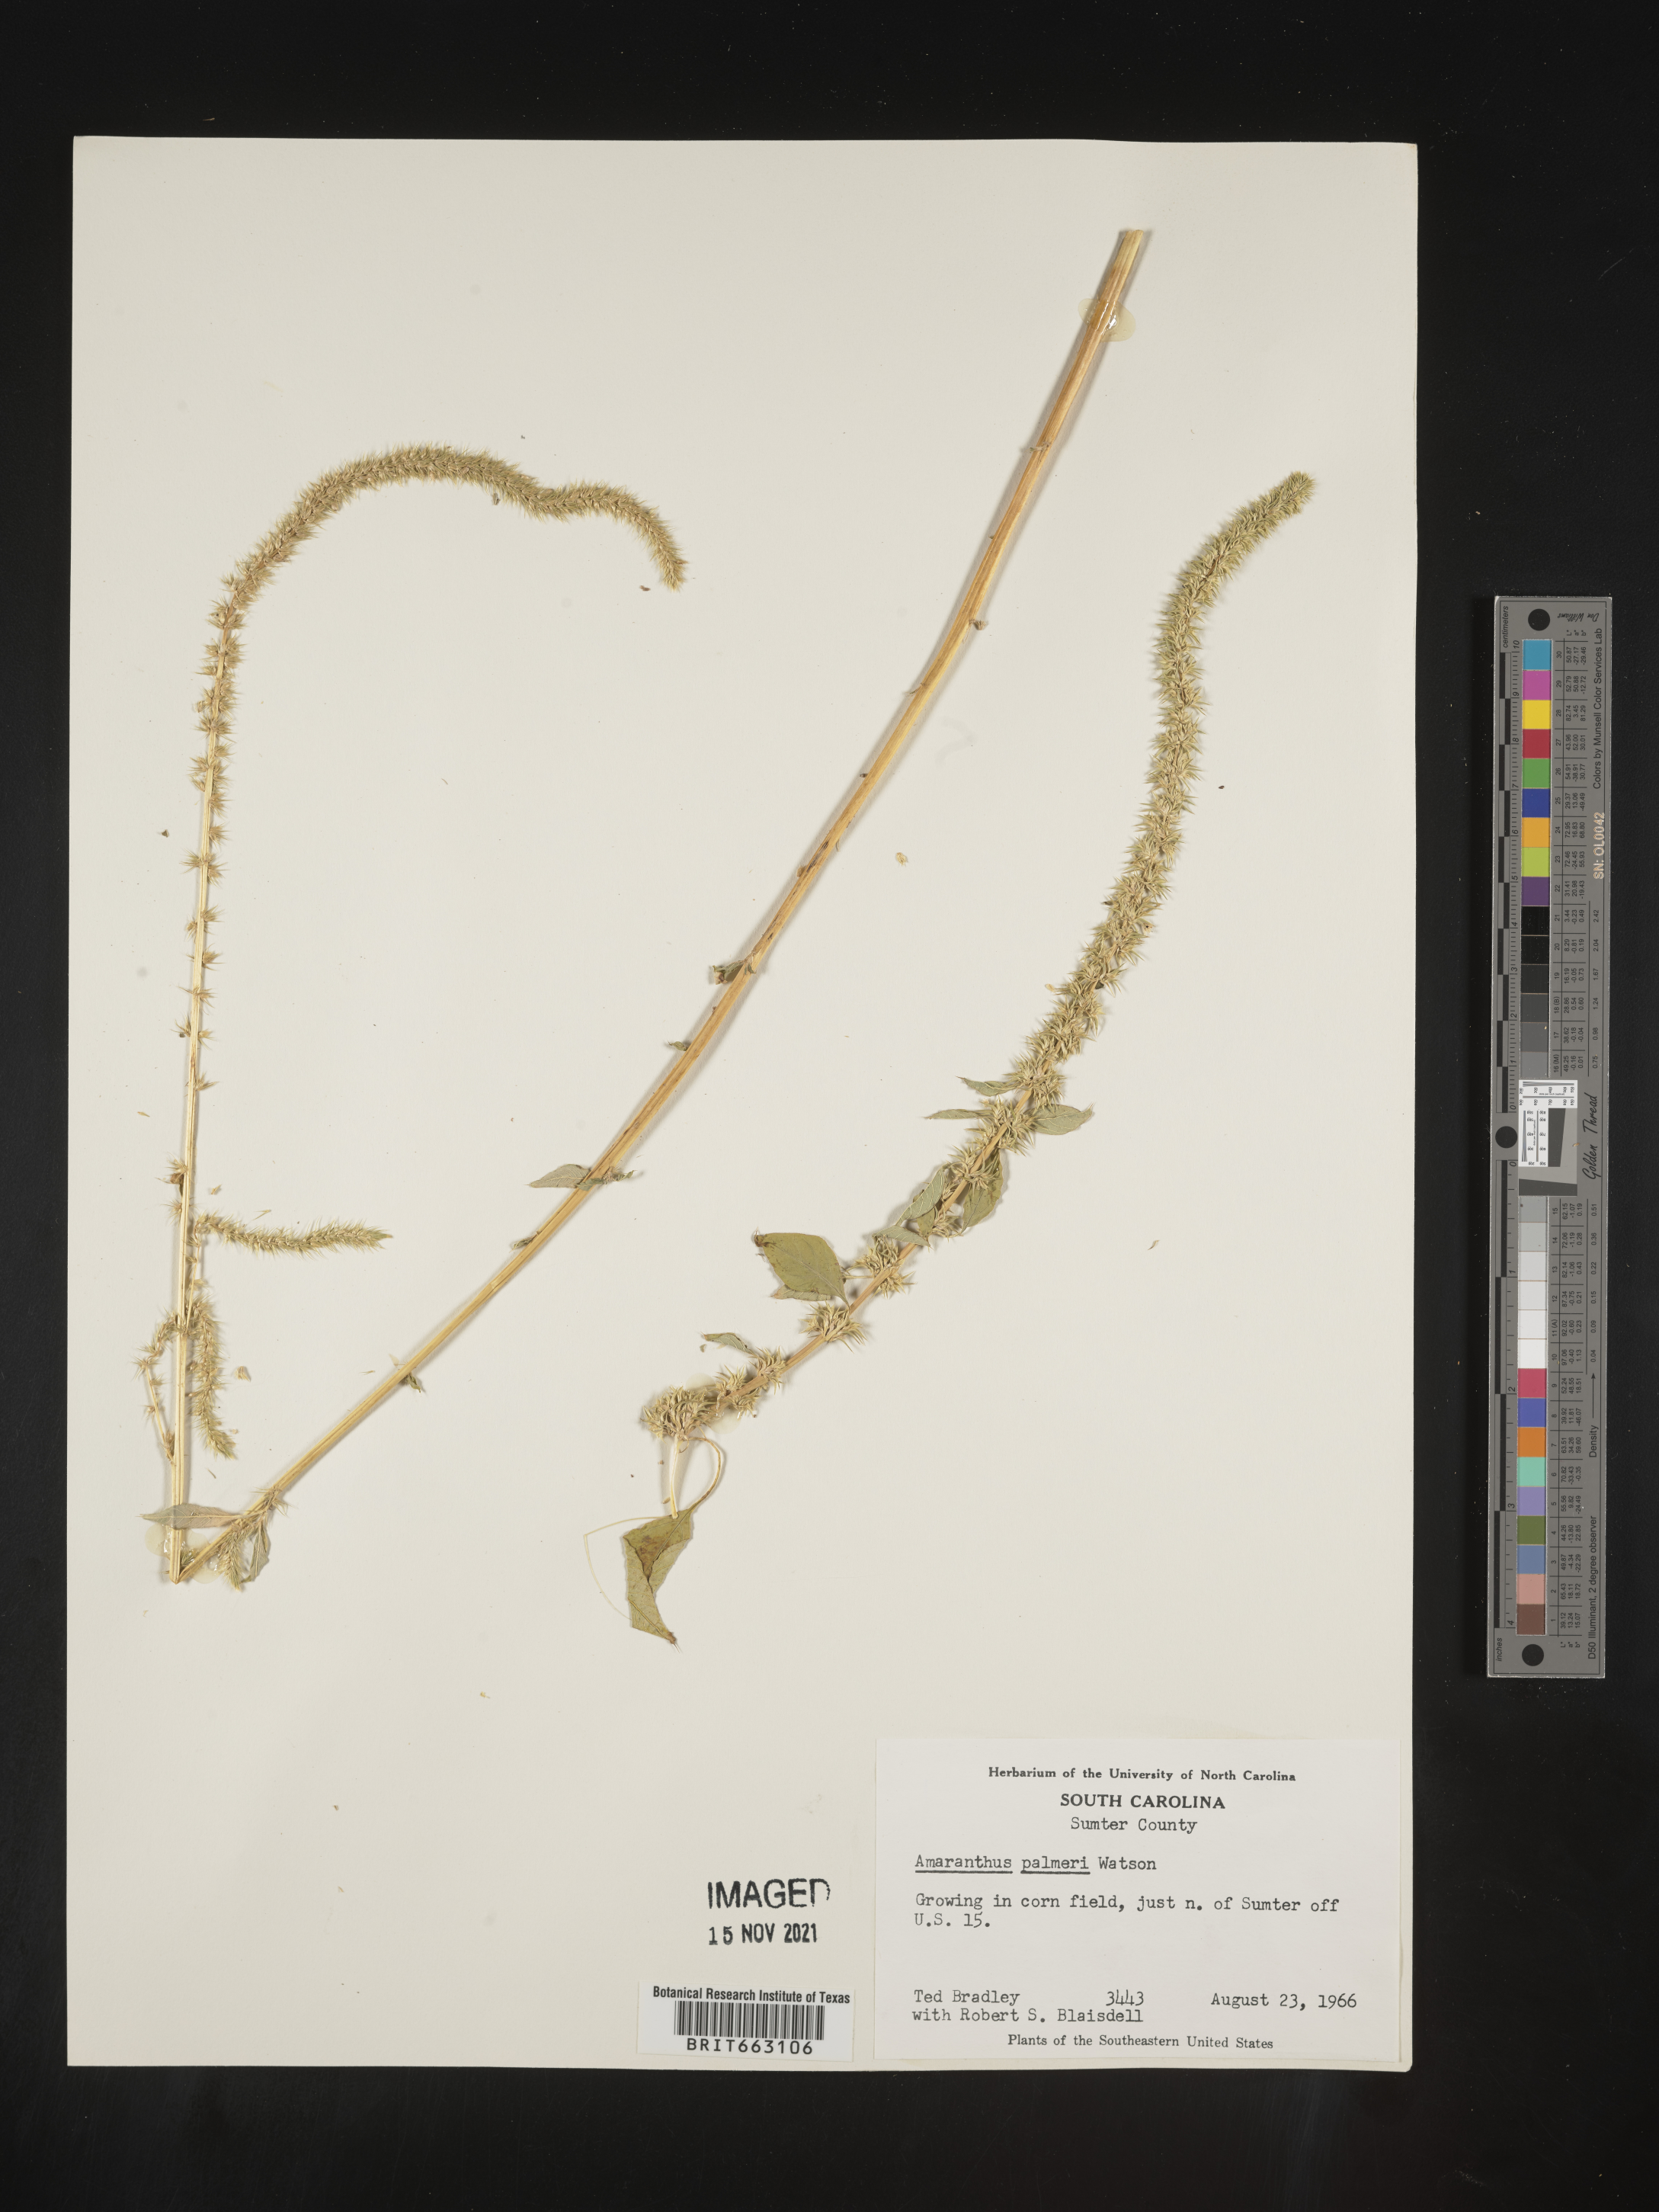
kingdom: Plantae
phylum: Tracheophyta
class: Magnoliopsida
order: Caryophyllales
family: Amaranthaceae
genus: Amaranthus
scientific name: Amaranthus palmeri
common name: Dioecious amaranth
